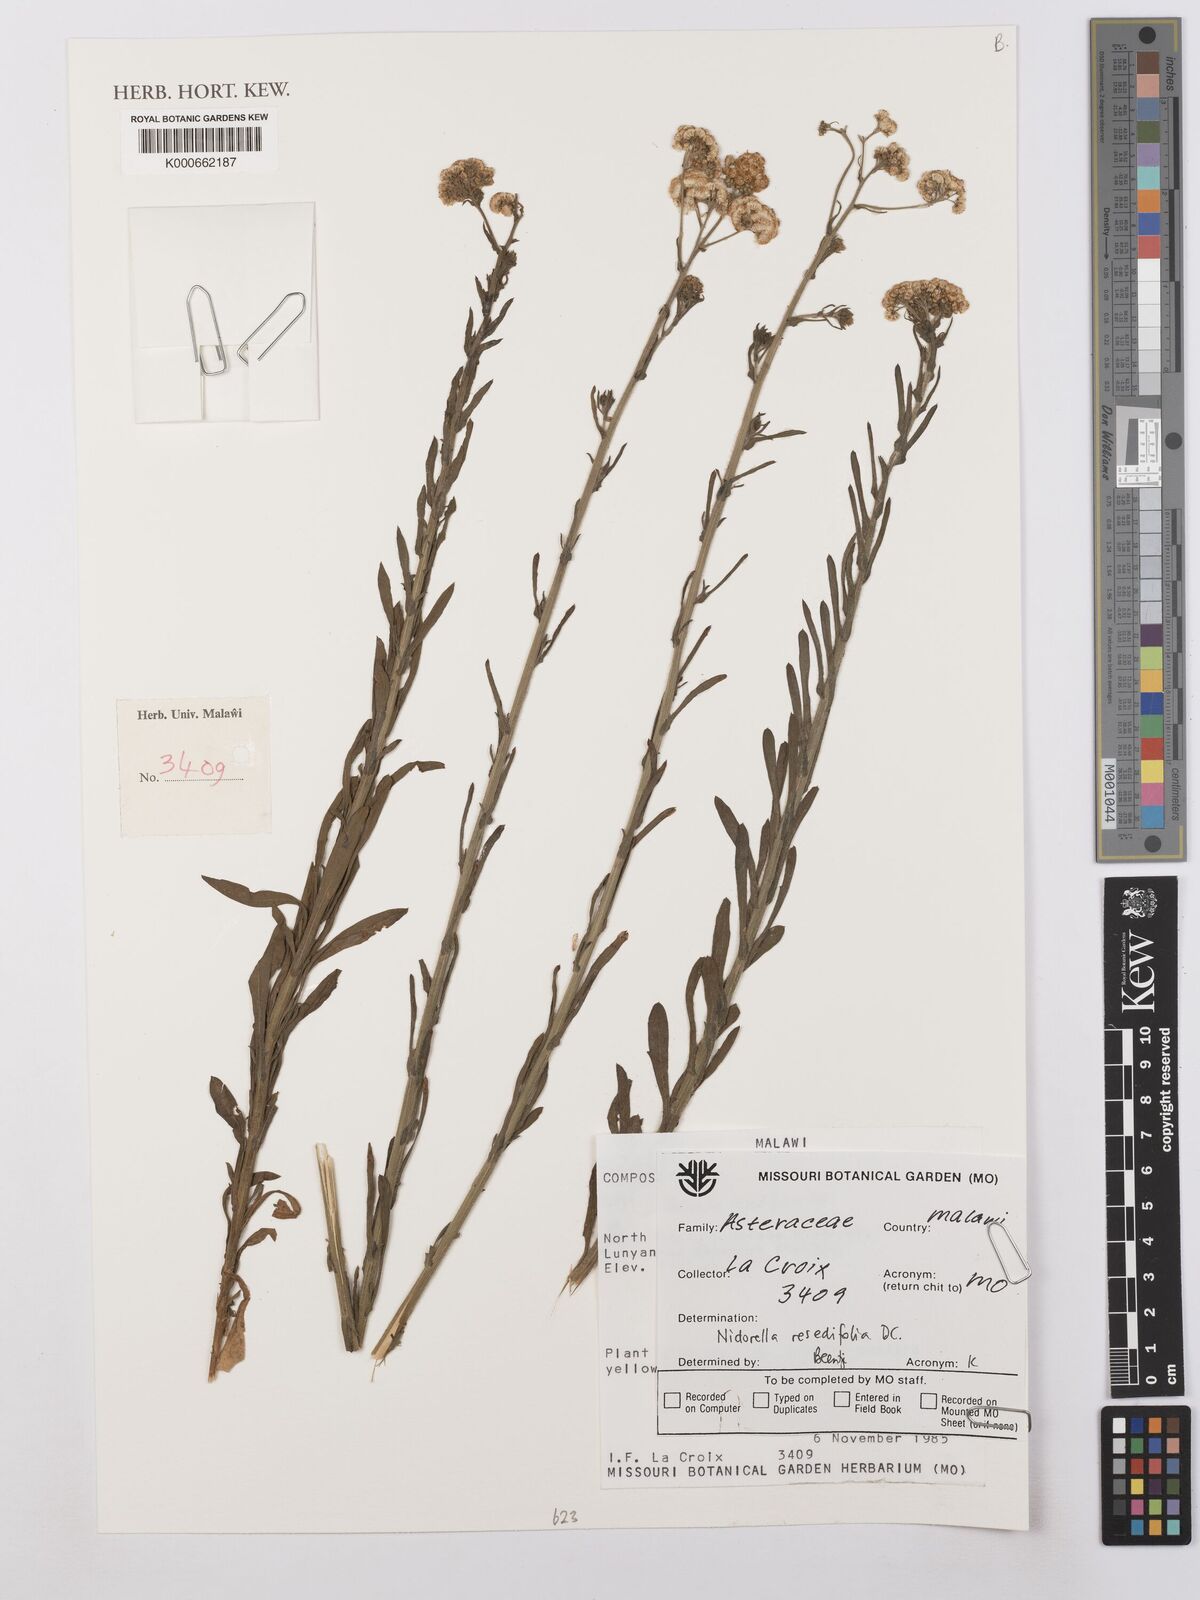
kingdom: Plantae
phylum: Tracheophyta
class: Magnoliopsida
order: Asterales
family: Asteraceae
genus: Nidorella
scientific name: Nidorella resedifolia
